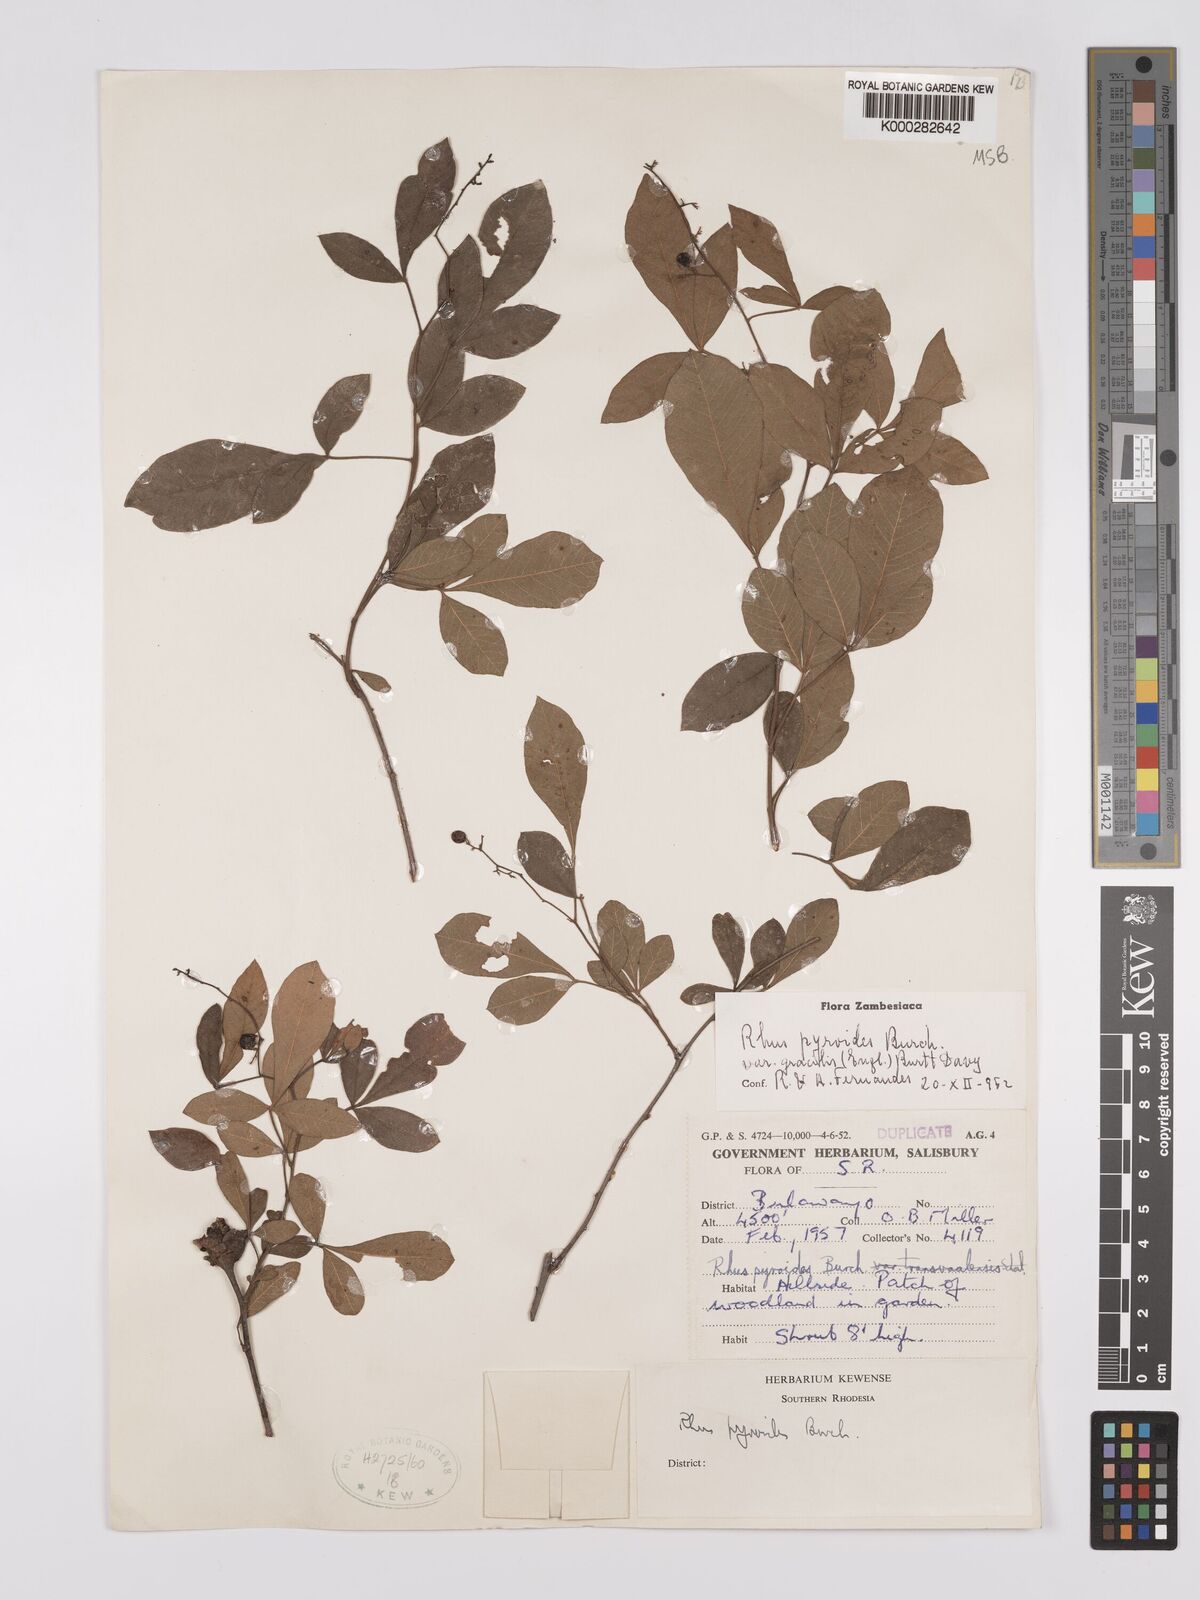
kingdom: Plantae
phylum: Tracheophyta
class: Magnoliopsida
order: Sapindales
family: Anacardiaceae
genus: Searsia
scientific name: Searsia pyroides
